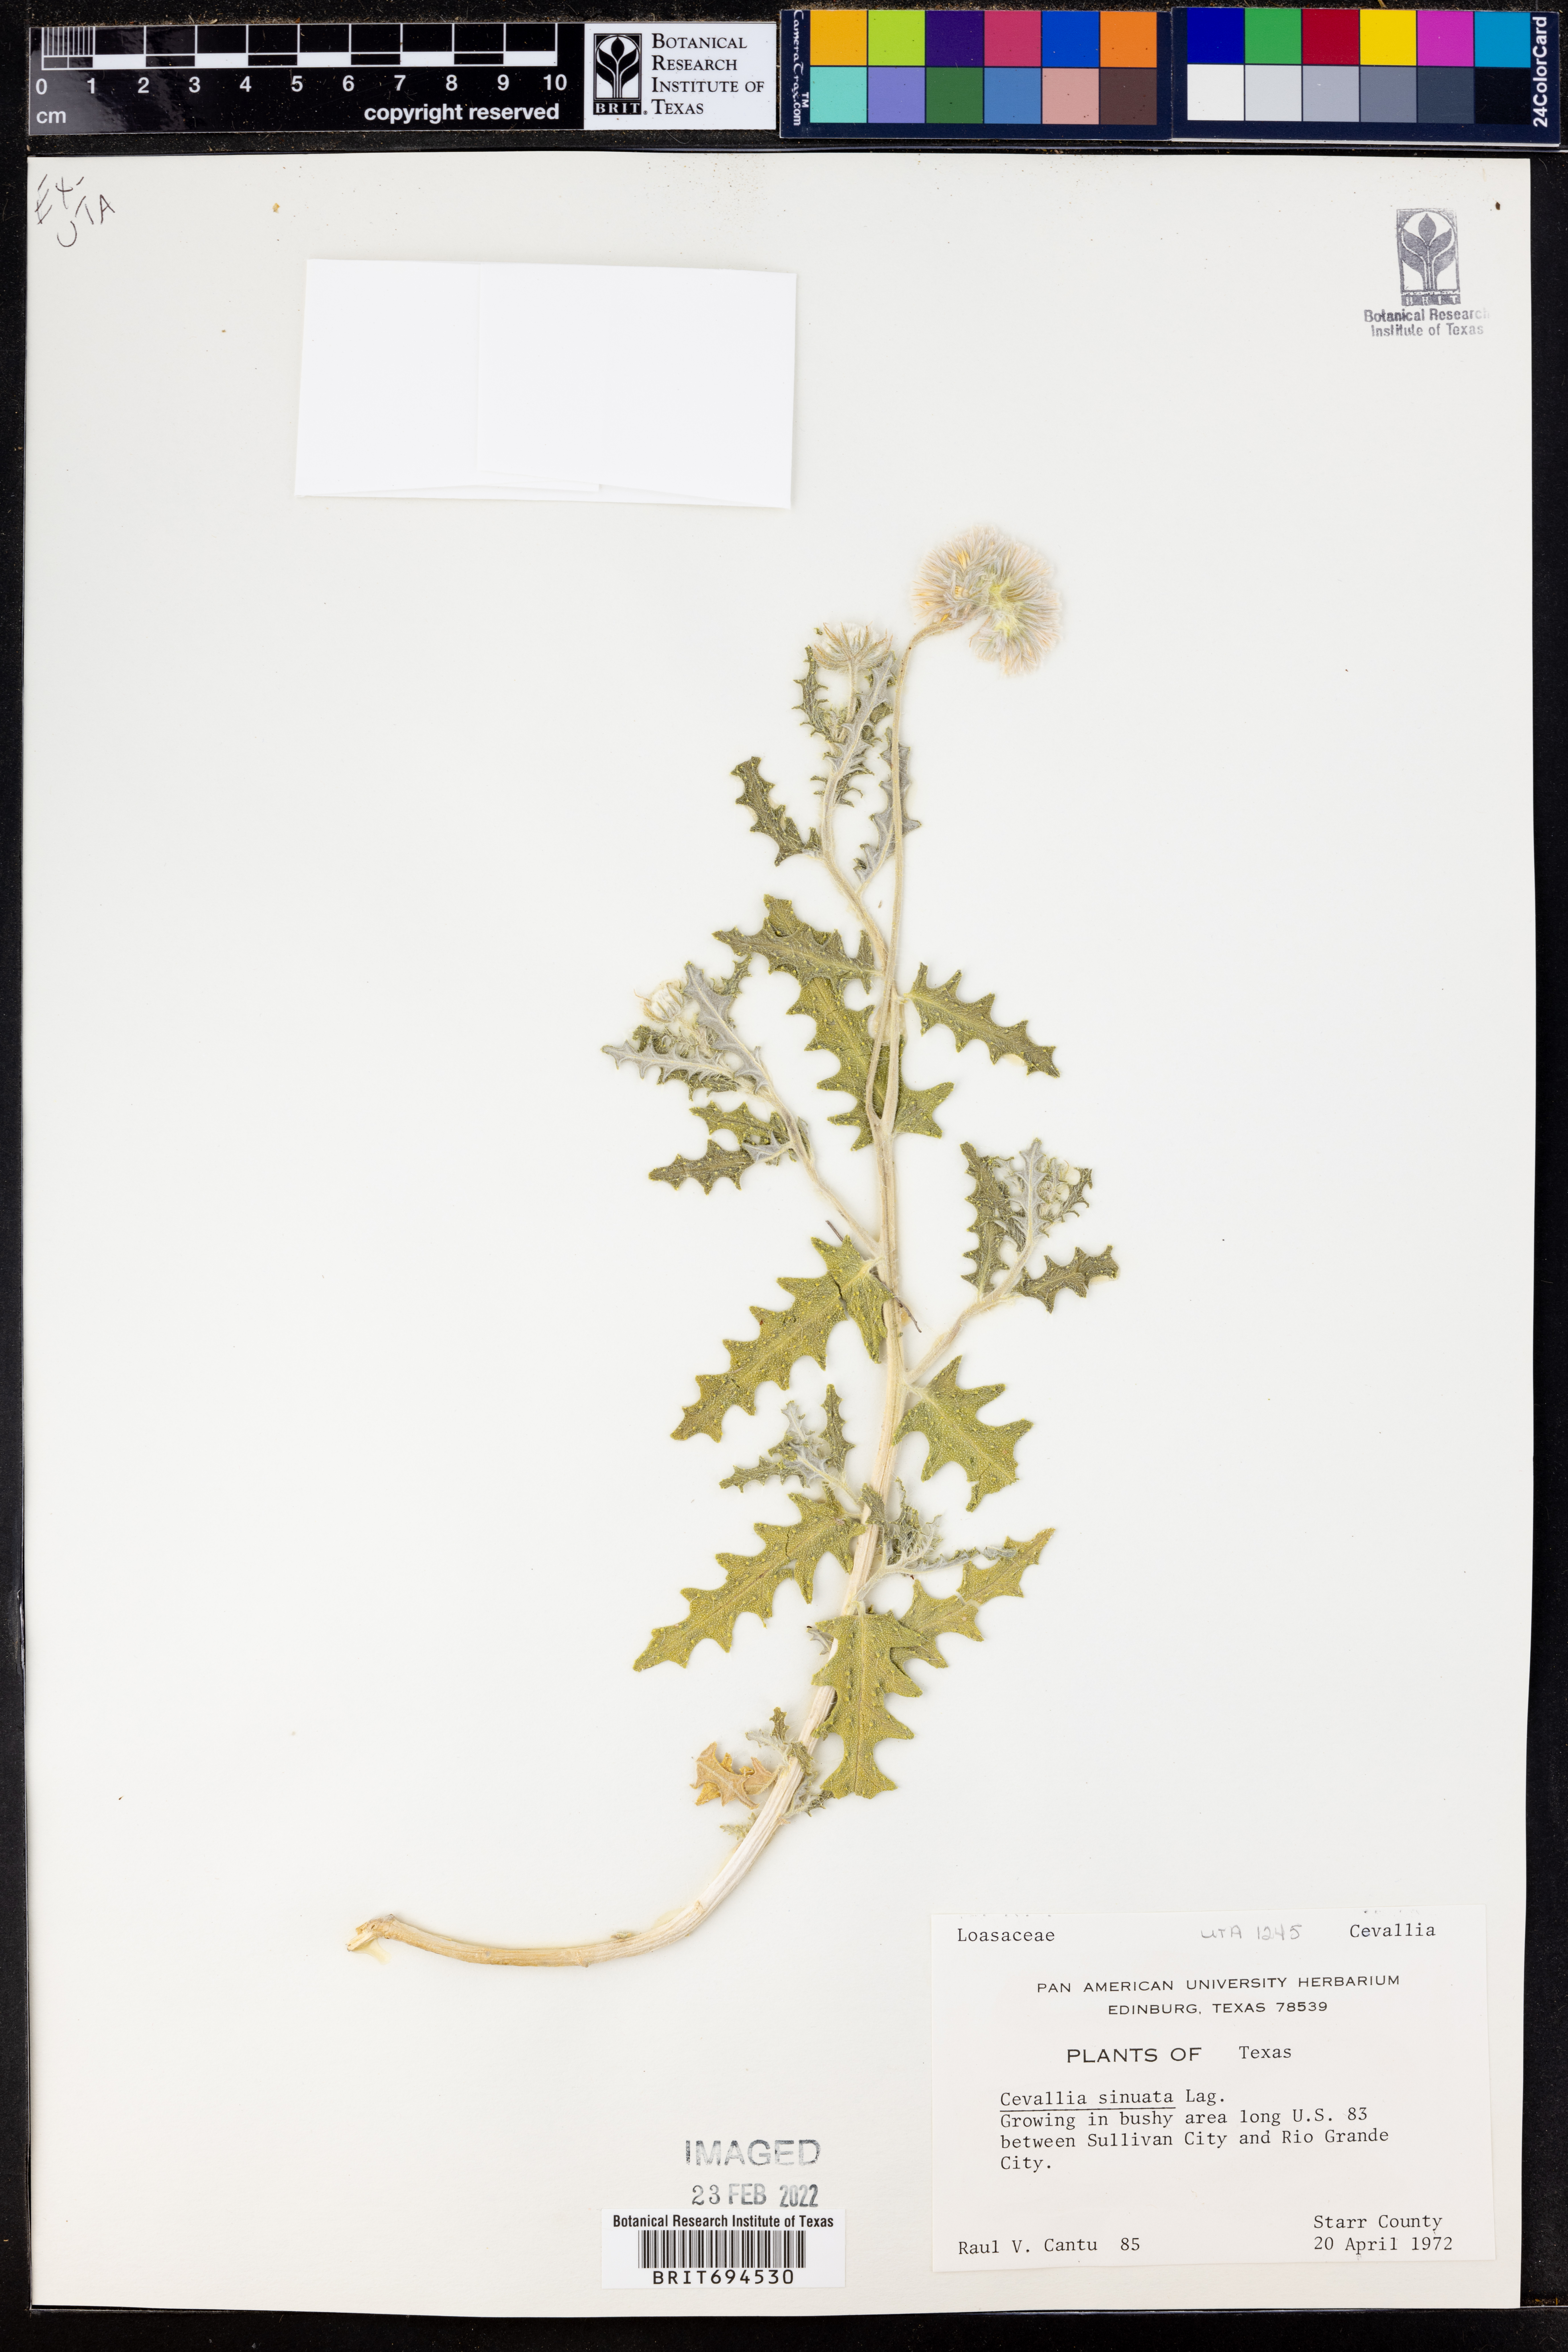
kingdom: Plantae
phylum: Tracheophyta
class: Magnoliopsida
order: Cornales
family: Loasaceae
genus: Cevallia
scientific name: Cevallia sinuata
